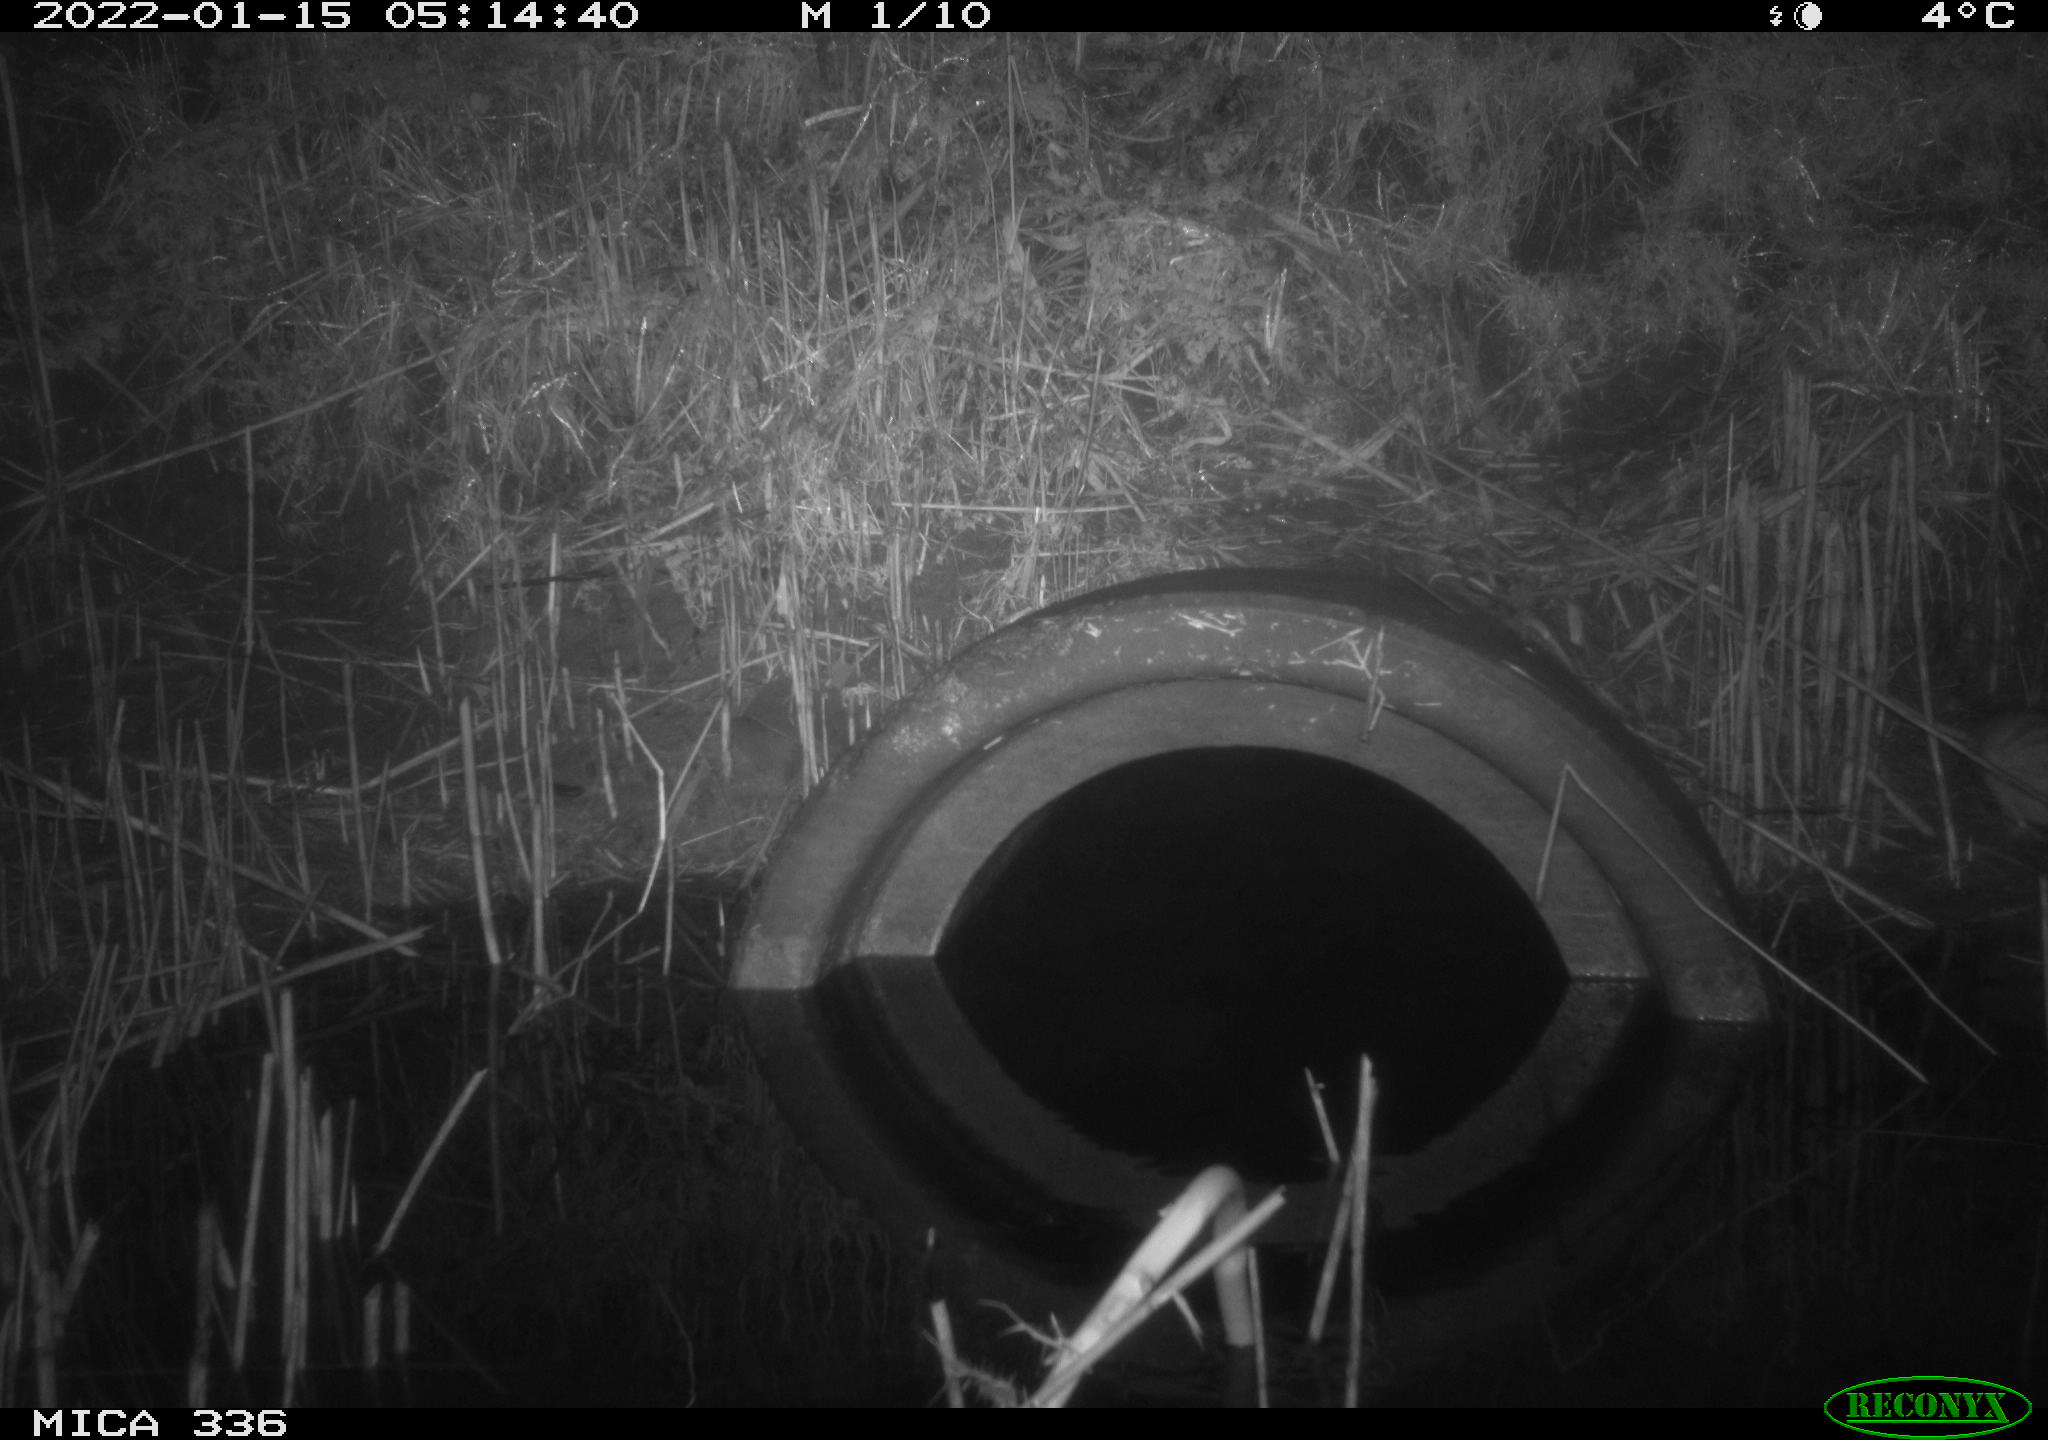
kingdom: Animalia
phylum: Chordata
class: Mammalia
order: Rodentia
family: Muridae
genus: Rattus
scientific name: Rattus norvegicus
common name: Brown rat
